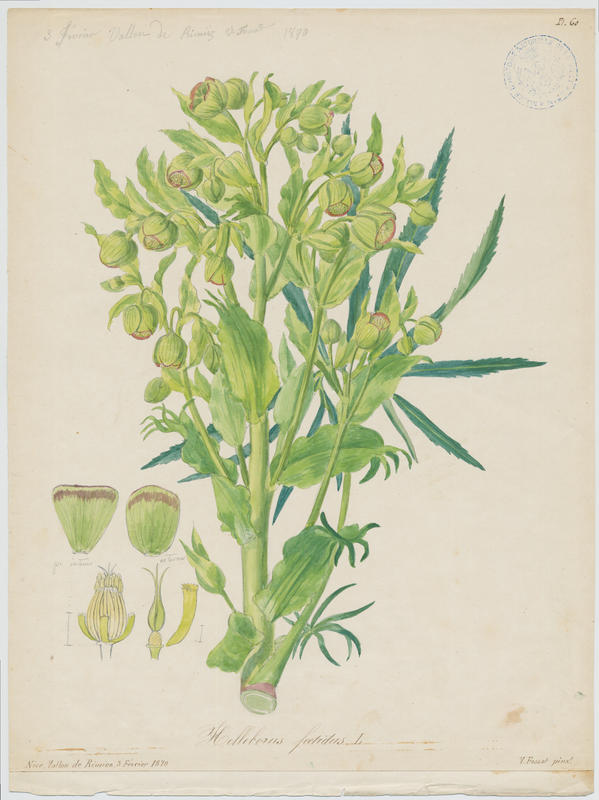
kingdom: Plantae
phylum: Tracheophyta
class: Magnoliopsida
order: Ranunculales
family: Ranunculaceae
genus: Helleborus
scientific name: Helleborus foetidus
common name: Stinking hellebore
